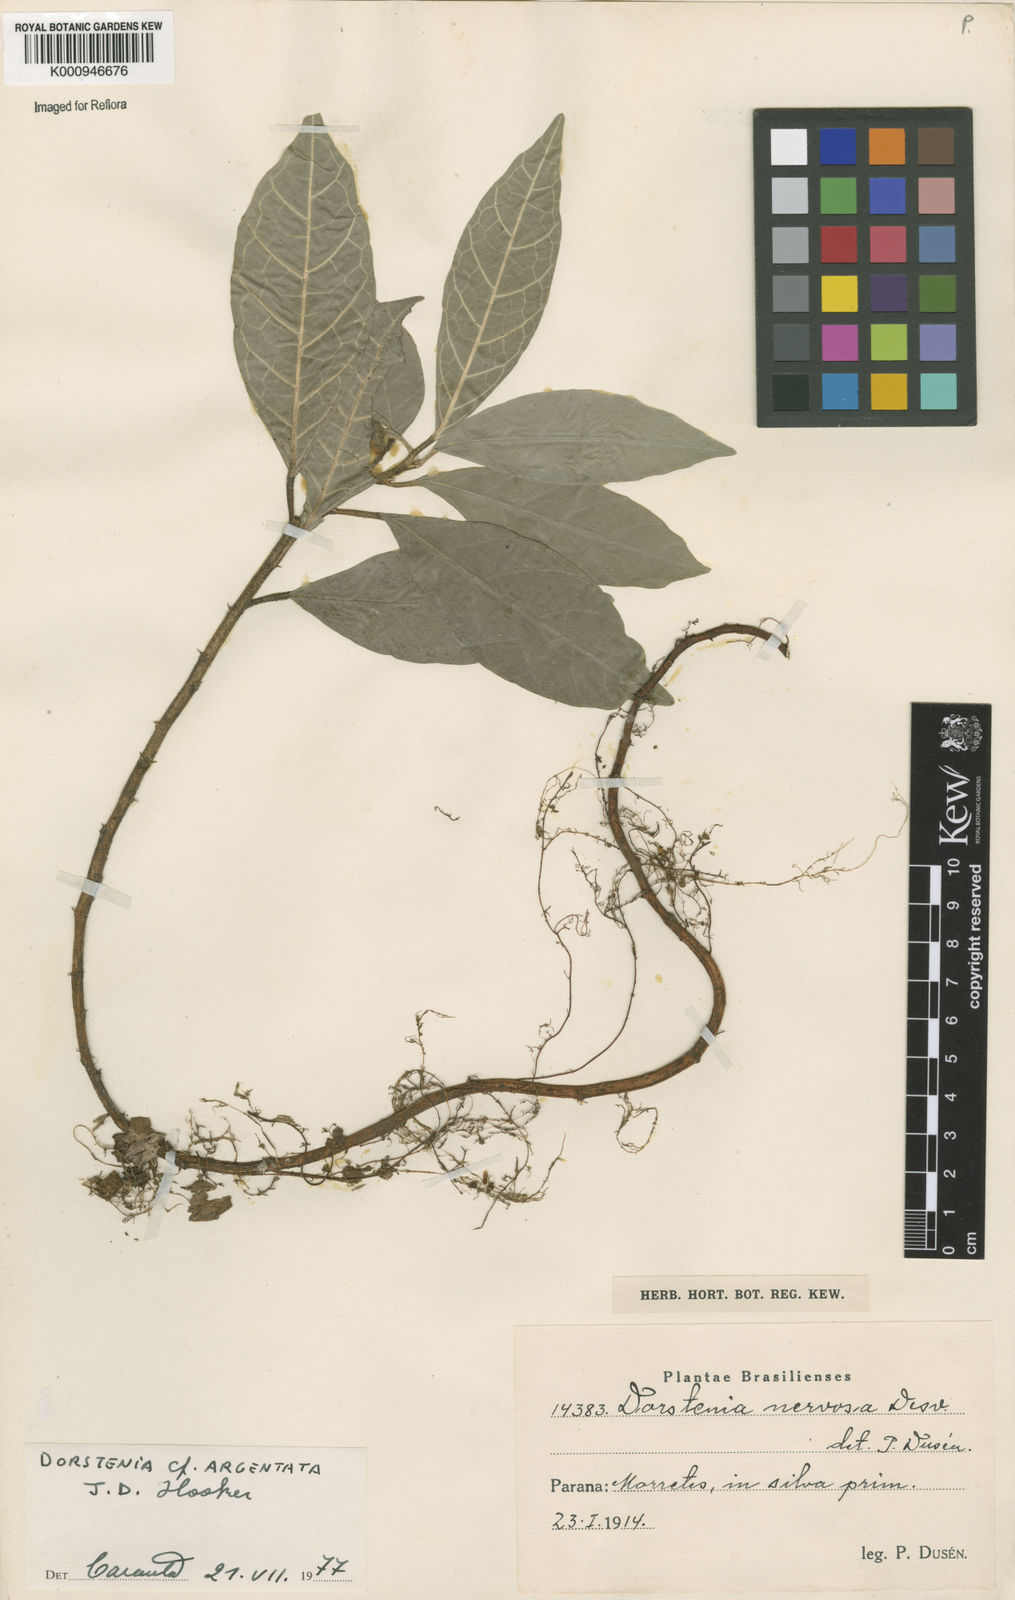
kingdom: Plantae
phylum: Tracheophyta
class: Magnoliopsida
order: Rosales
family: Moraceae
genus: Dorstenia
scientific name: Dorstenia turnerifolia
